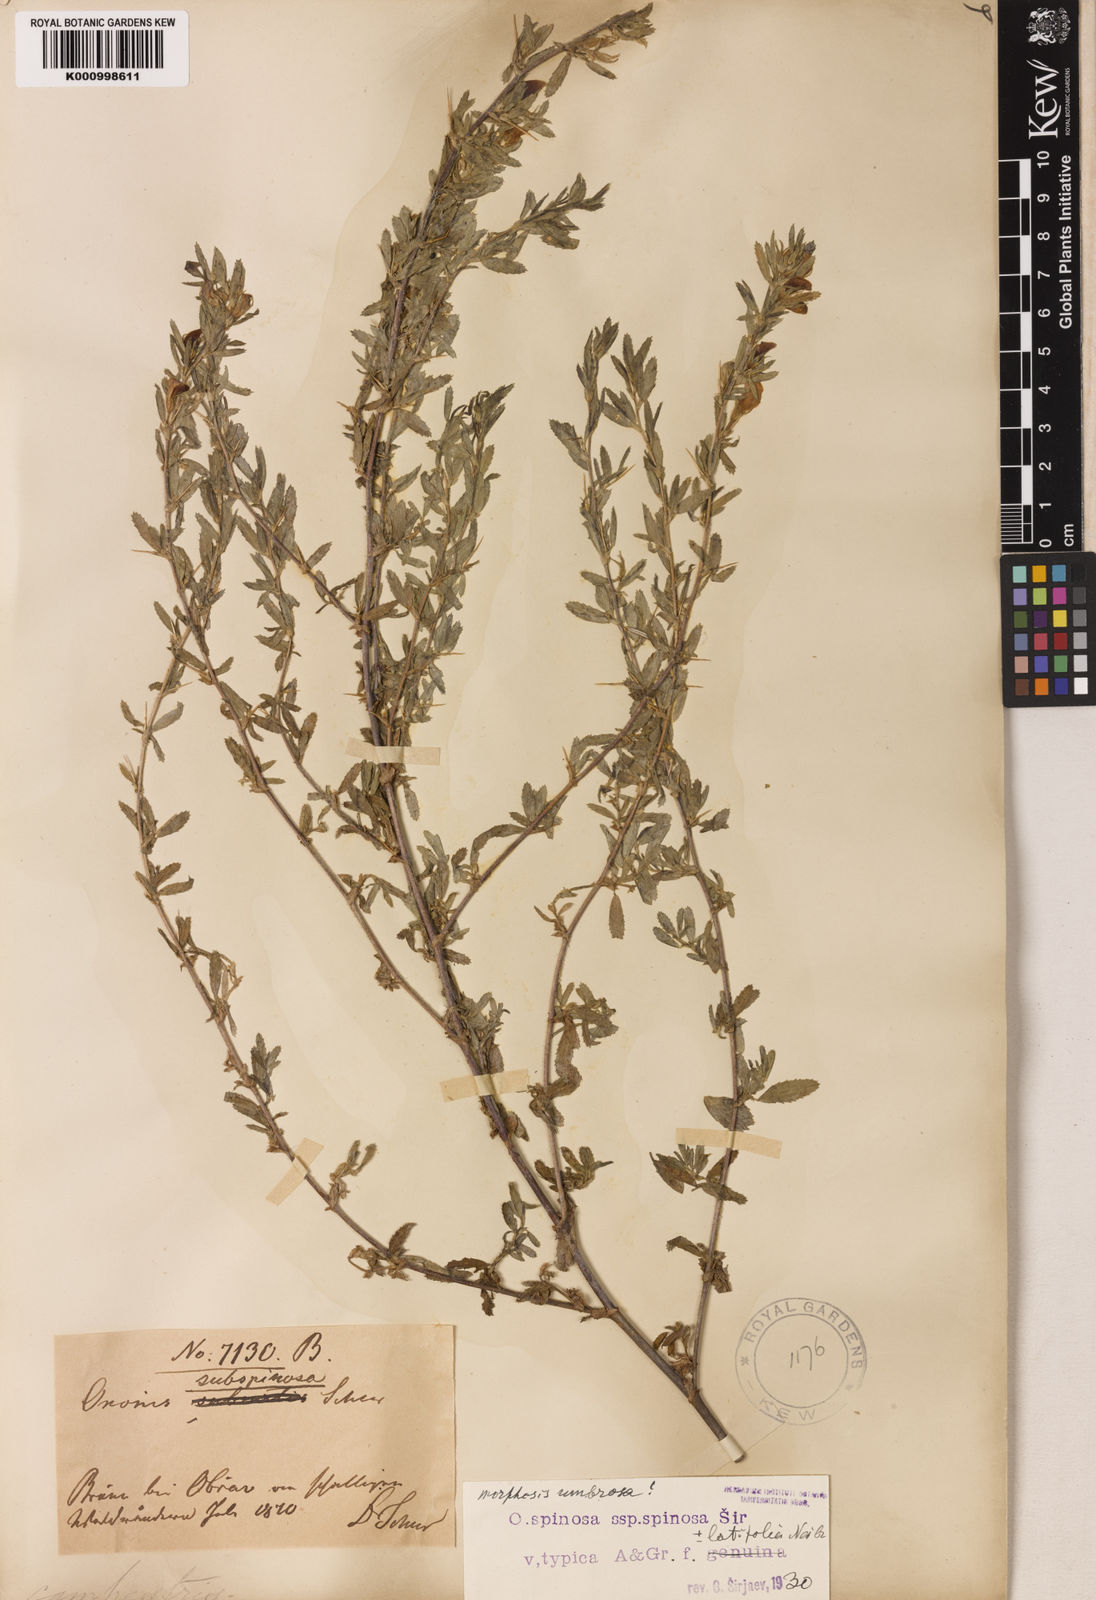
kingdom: Plantae
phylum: Tracheophyta
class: Magnoliopsida
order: Fabales
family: Fabaceae
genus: Ononis
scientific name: Ononis spinosa
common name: Spiny restharrow
